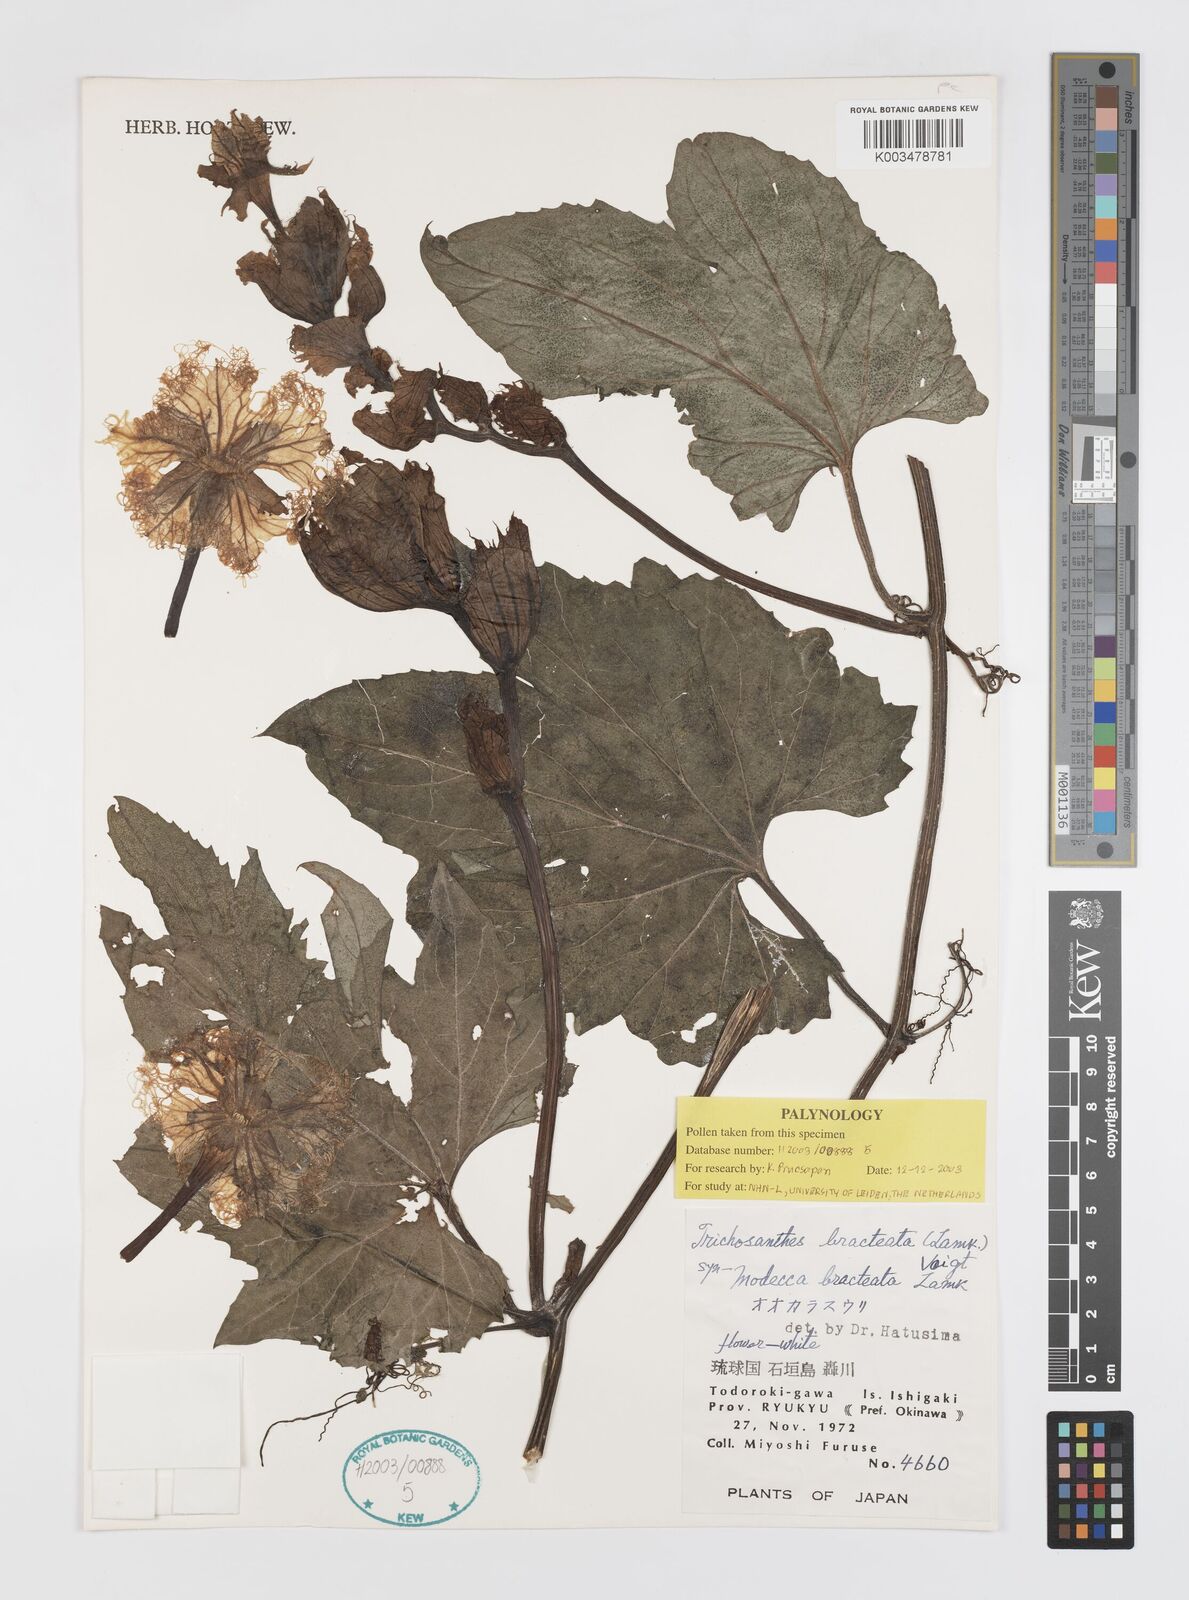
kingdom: Plantae
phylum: Tracheophyta
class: Magnoliopsida
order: Cucurbitales
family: Cucurbitaceae
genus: Trichosanthes
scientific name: Trichosanthes bracteata
